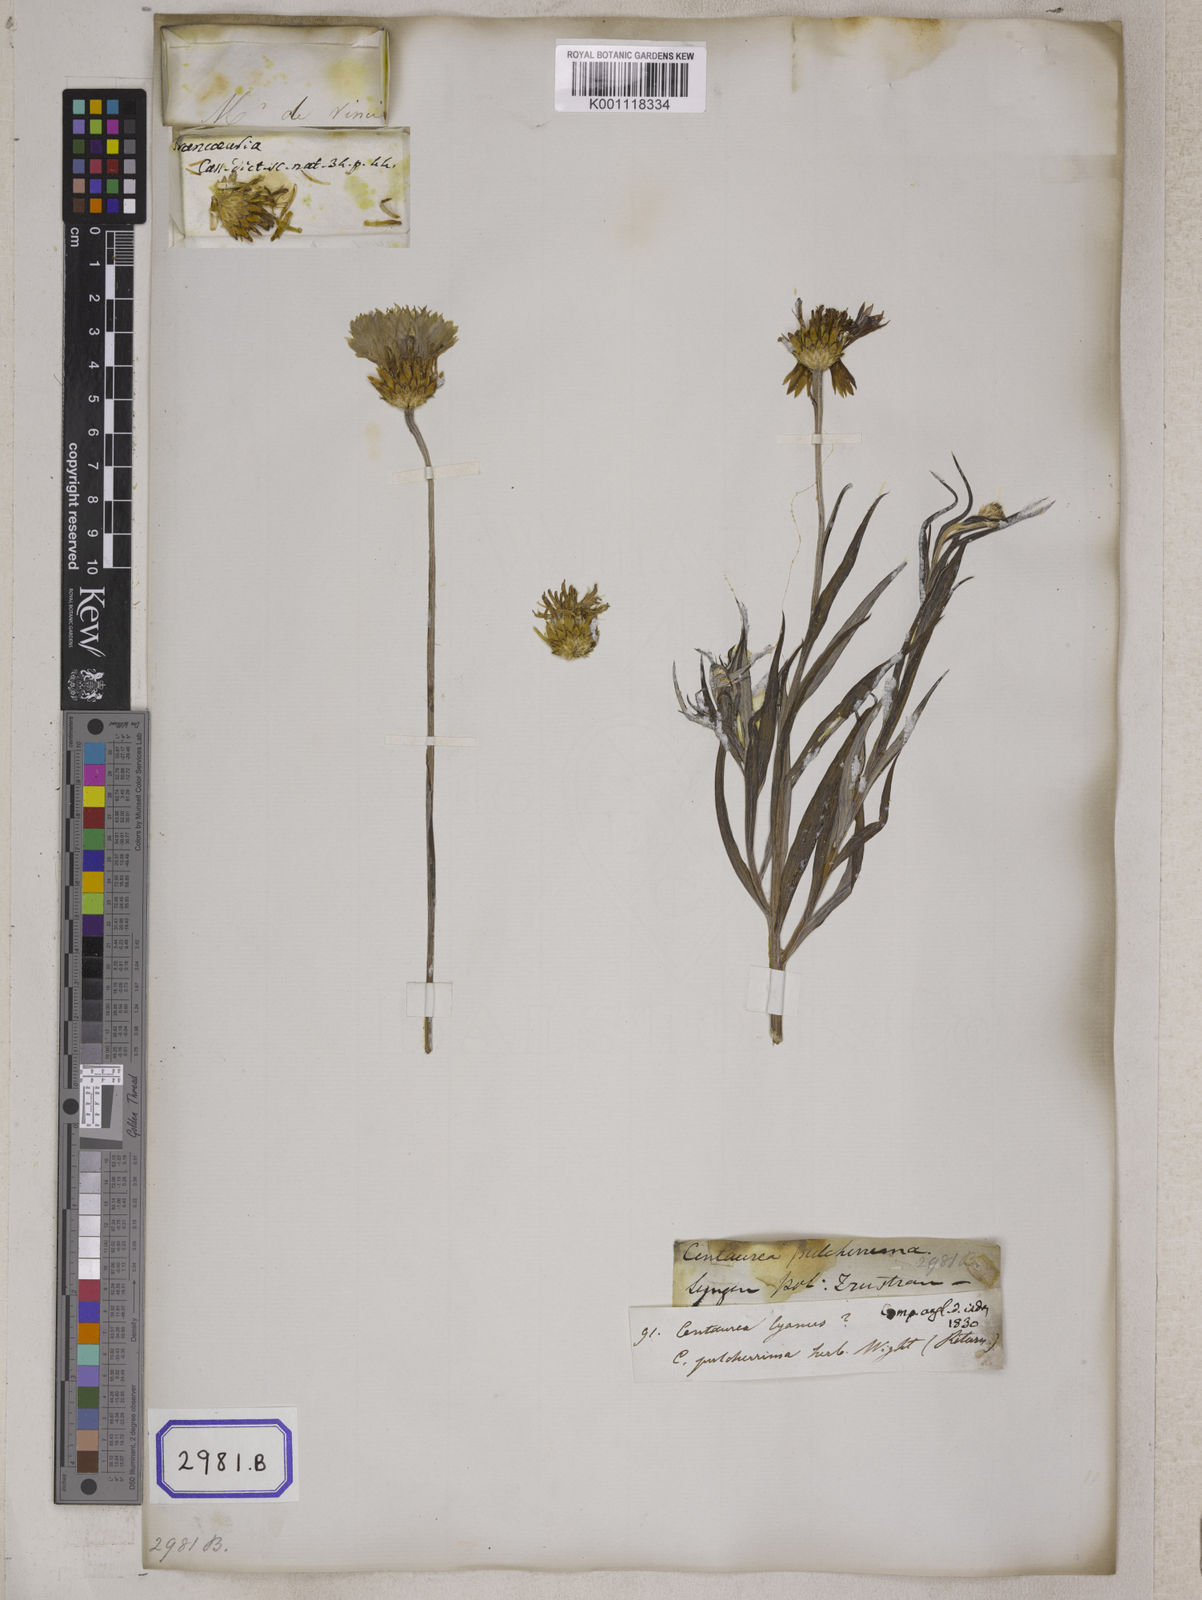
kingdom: Plantae
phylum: Tracheophyta
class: Magnoliopsida
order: Asterales
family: Asteraceae
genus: Centaurea
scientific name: Centaurea cyanus
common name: Cornflower
